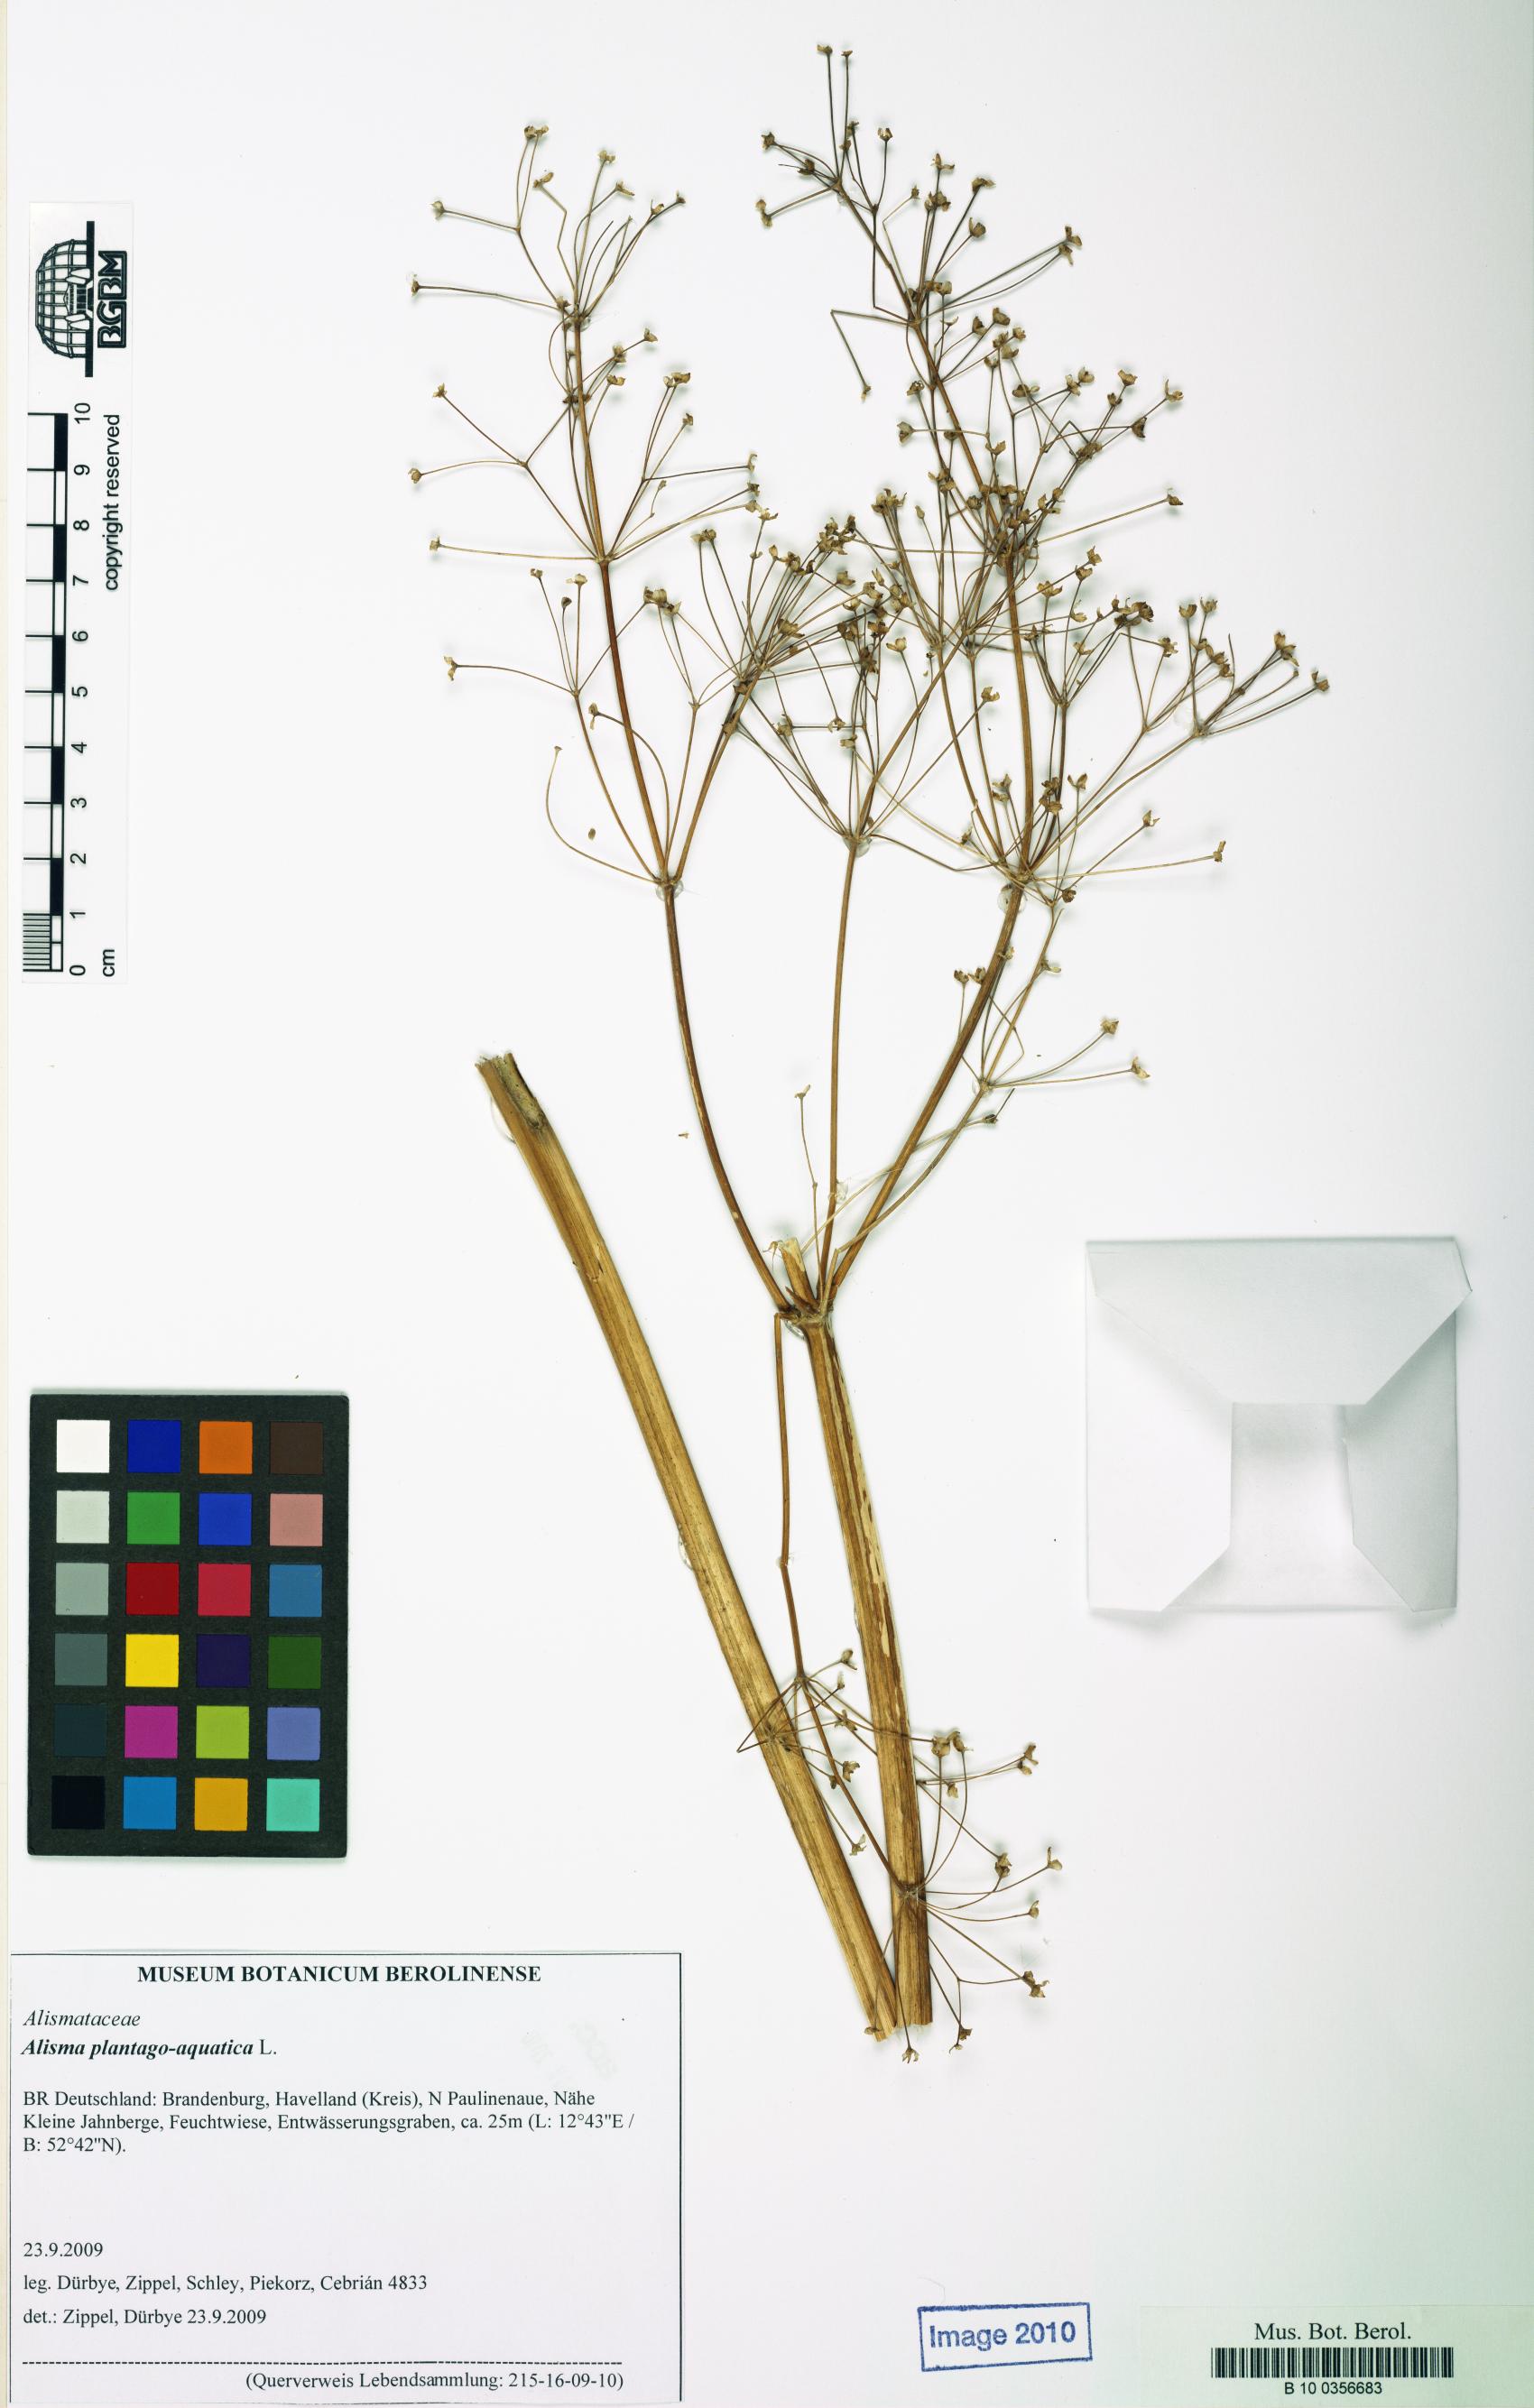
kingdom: Plantae
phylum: Tracheophyta
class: Liliopsida
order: Alismatales
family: Alismataceae
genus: Alisma
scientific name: Alisma plantago-aquatica
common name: Water-plantain
